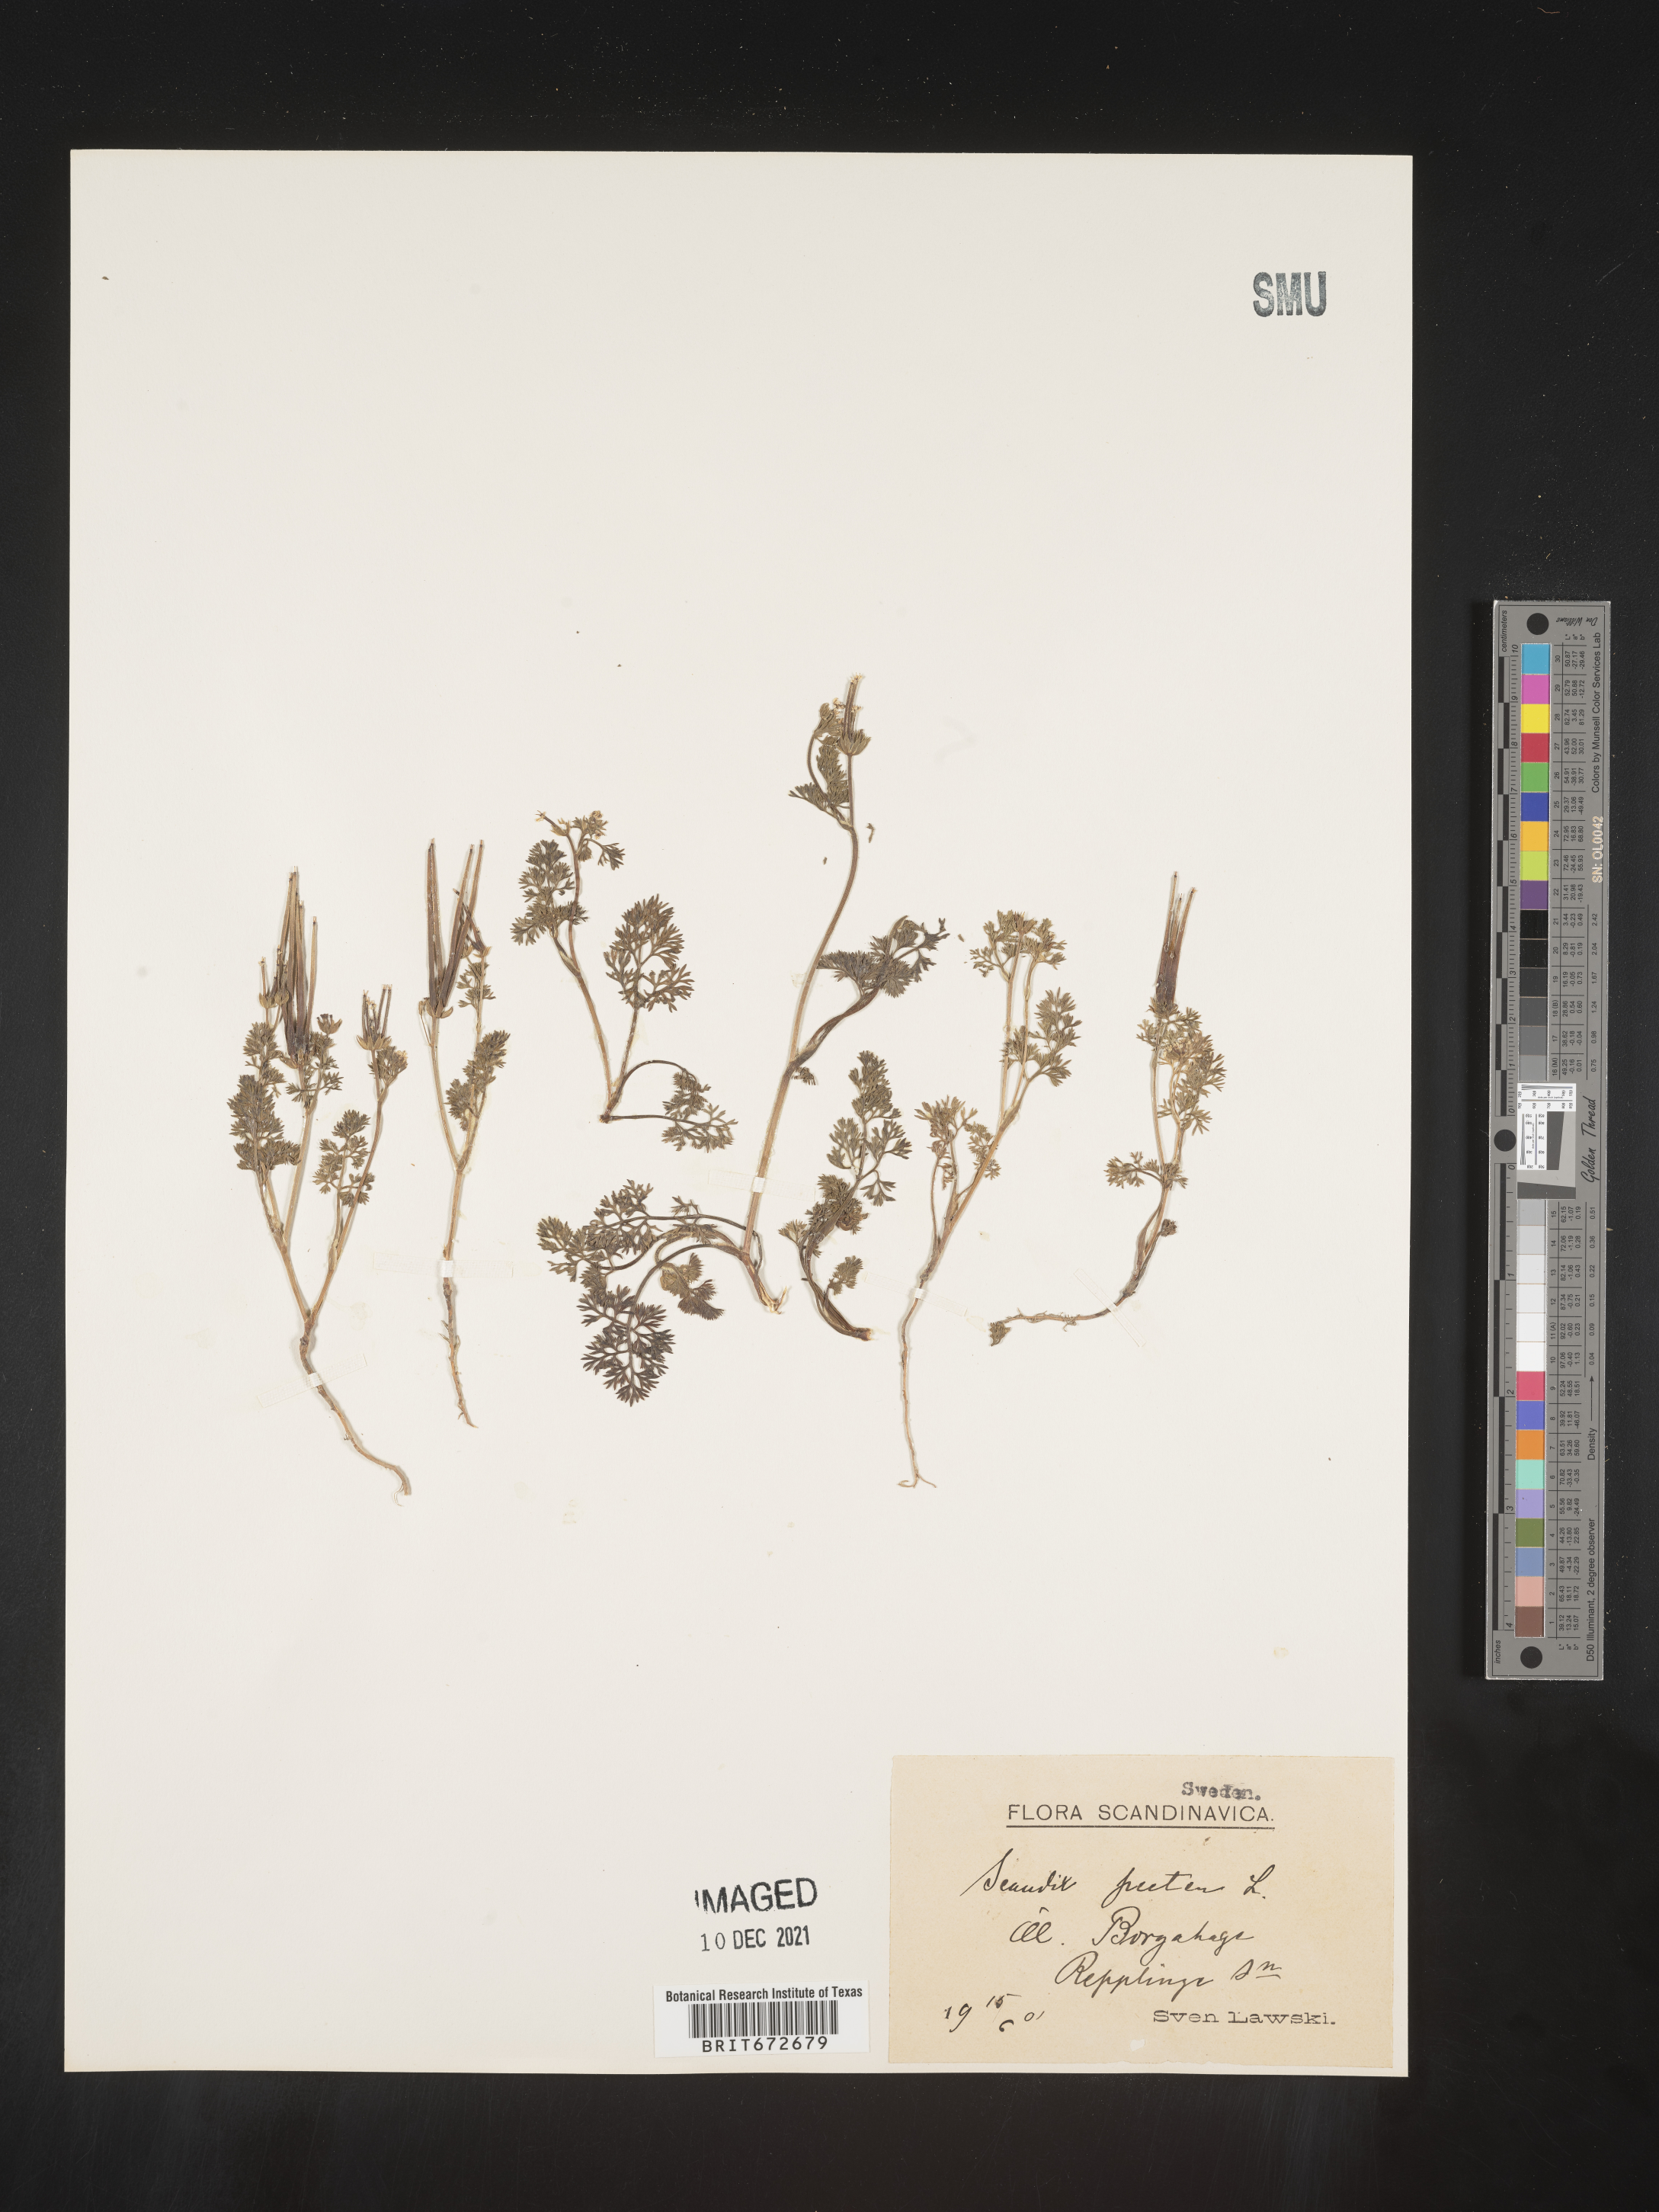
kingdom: Plantae
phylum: Tracheophyta
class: Magnoliopsida
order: Apiales
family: Apiaceae
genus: Scandix
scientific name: Scandix
